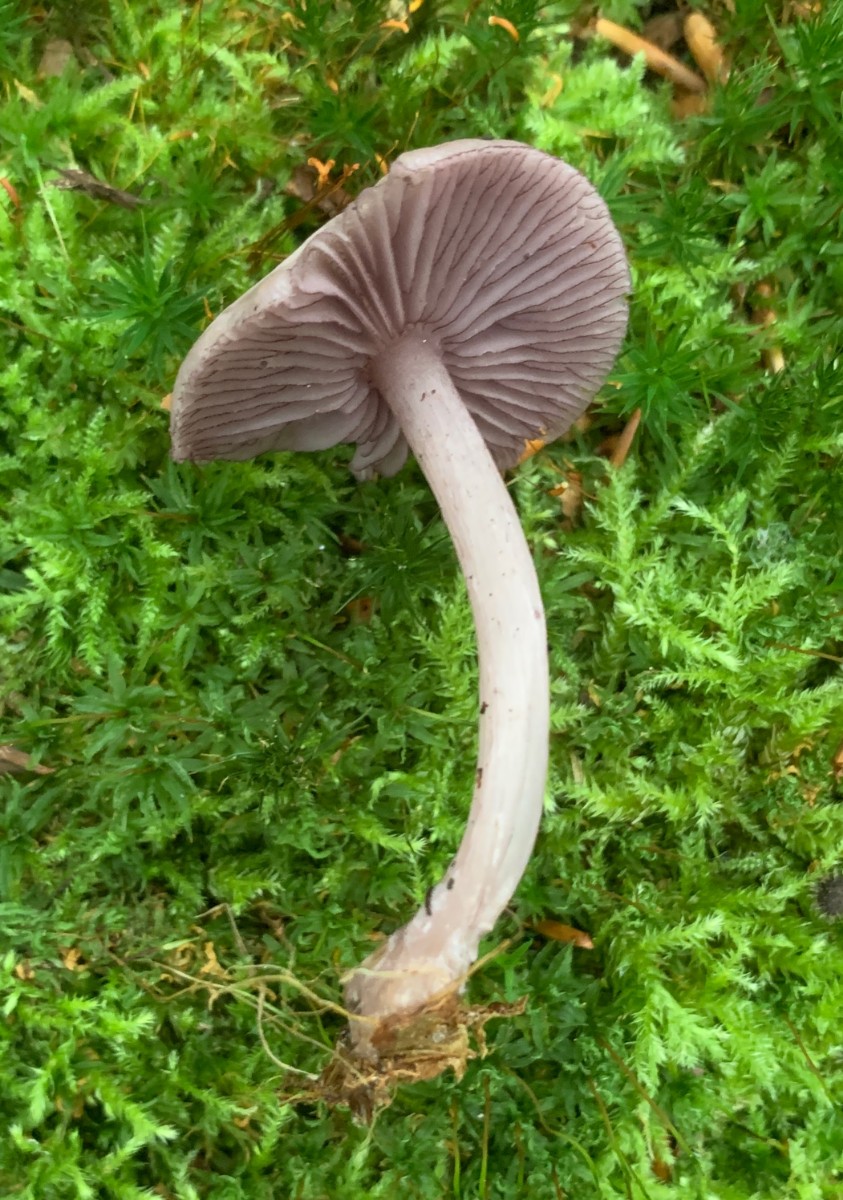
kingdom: Fungi
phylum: Basidiomycota
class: Agaricomycetes
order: Agaricales
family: Mycenaceae
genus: Mycena
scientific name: Mycena pelianthina
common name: mørkbladet huesvamp
